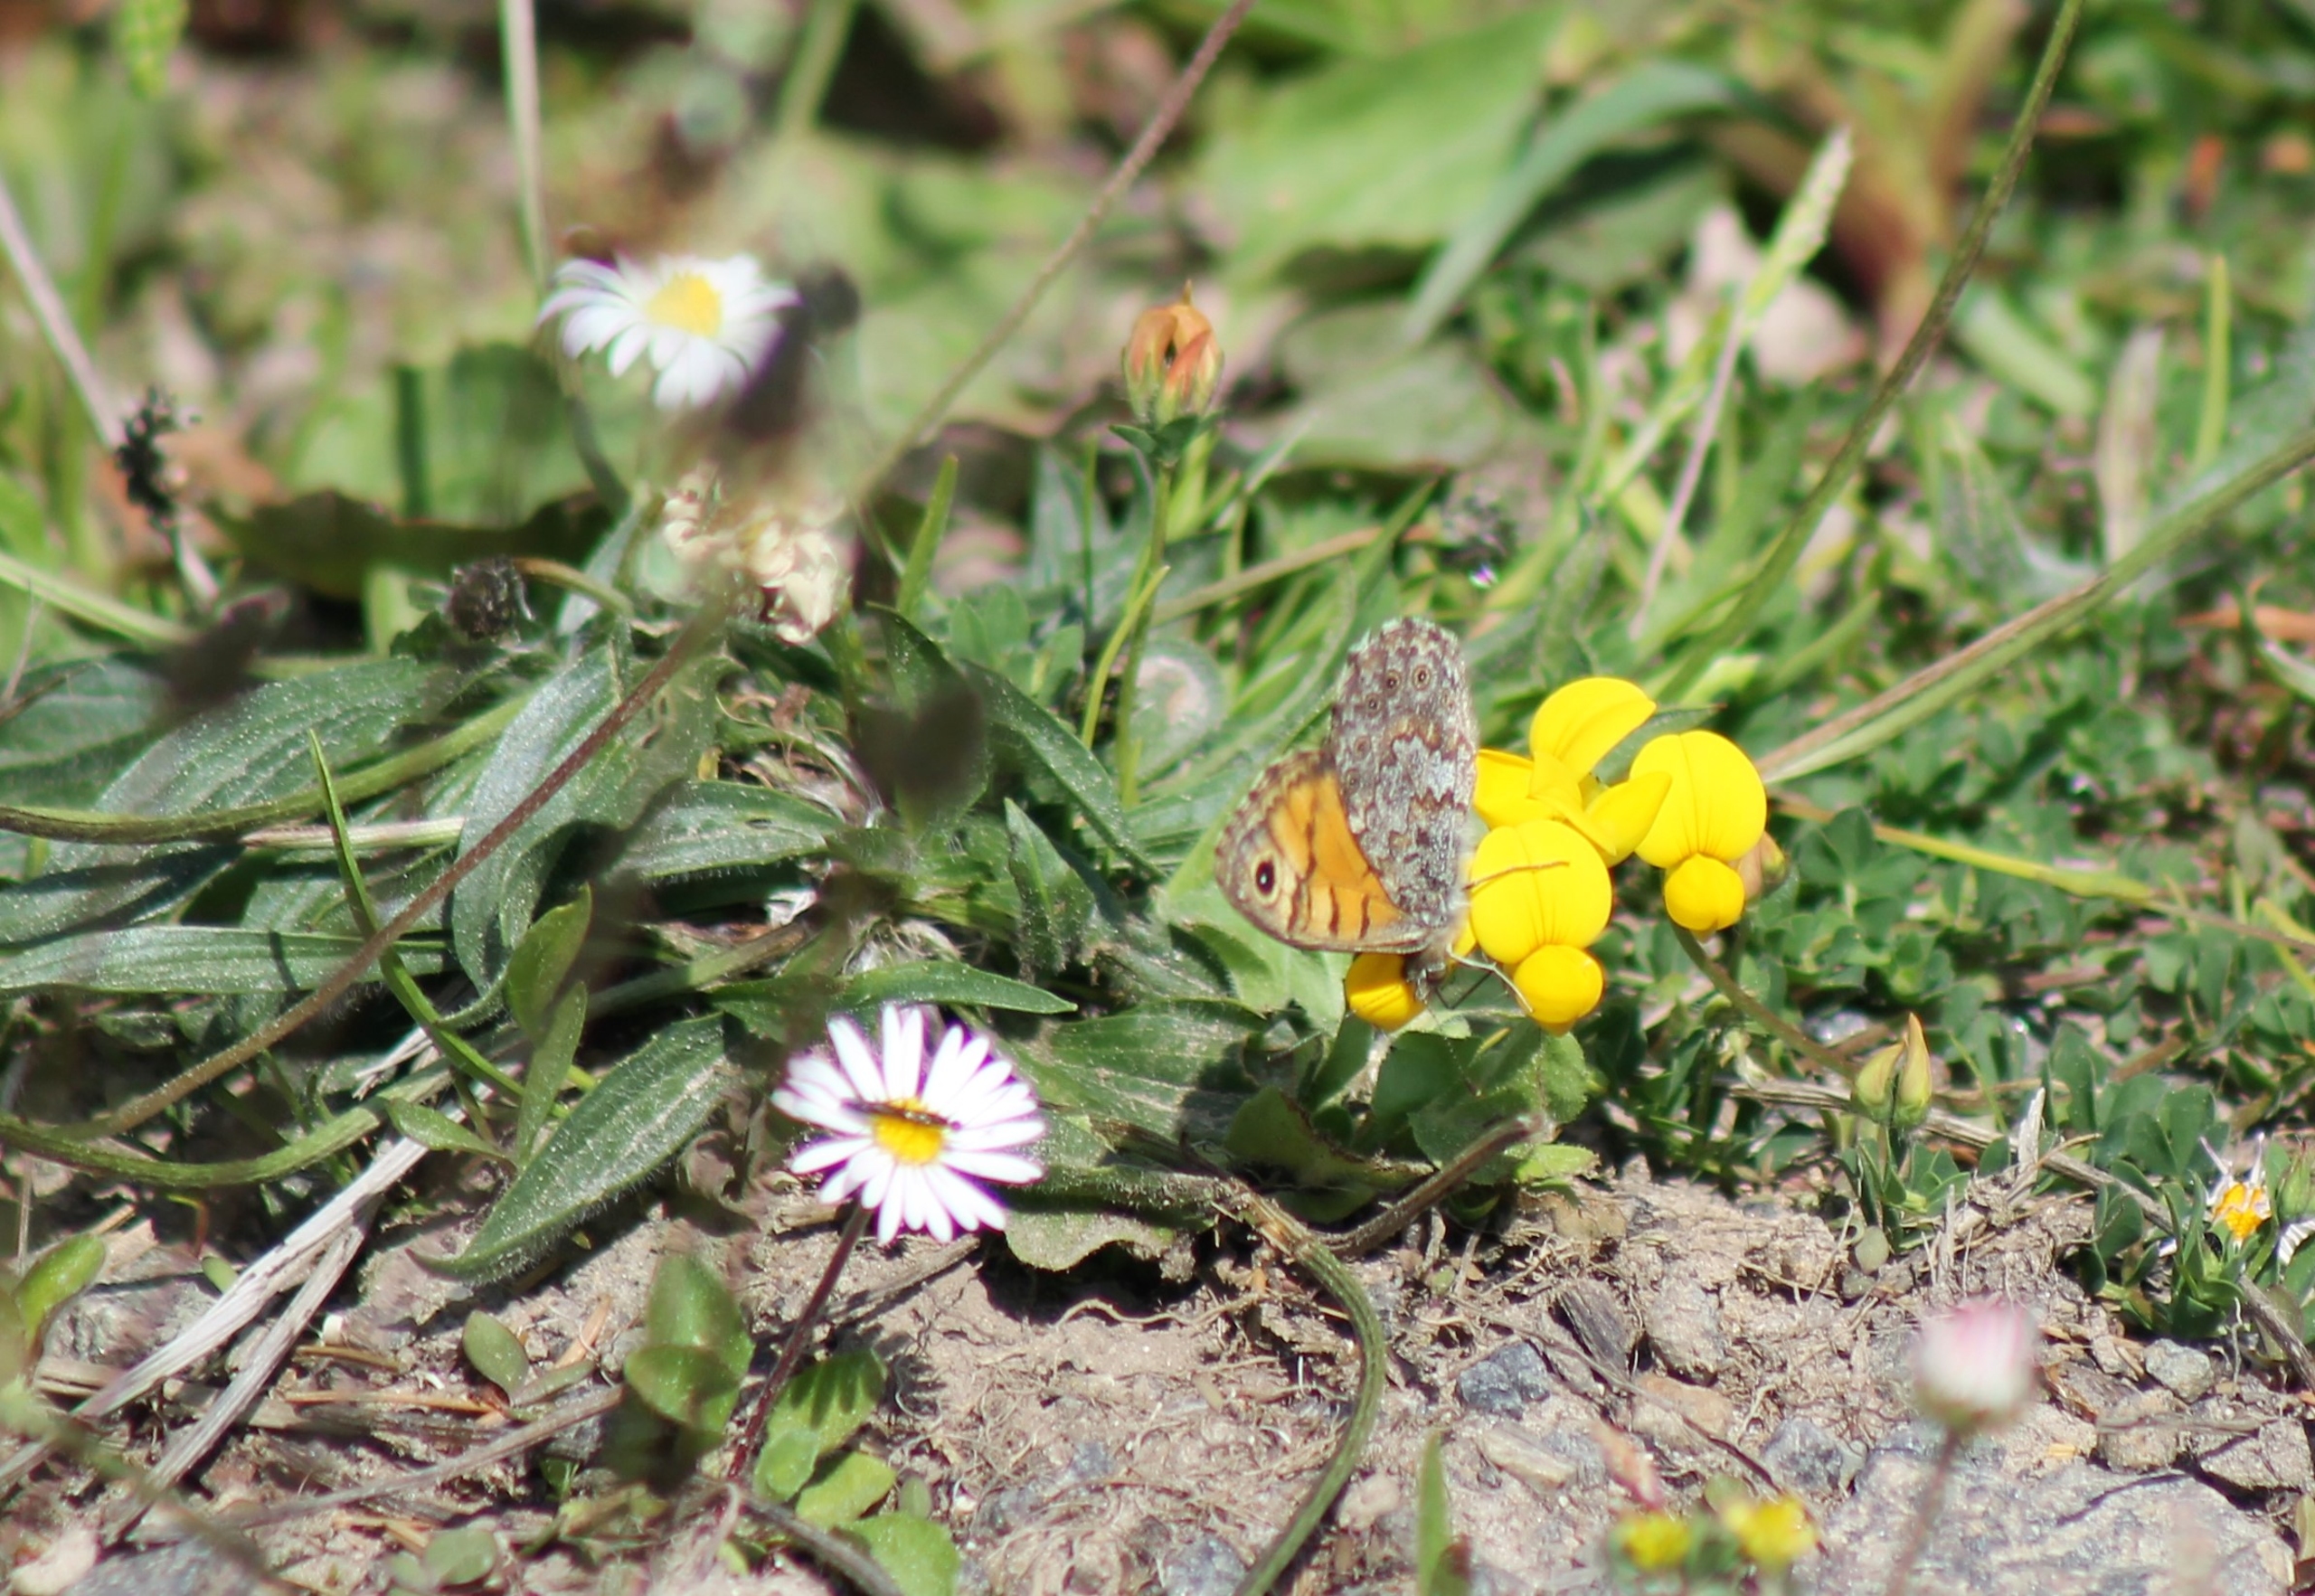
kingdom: Animalia
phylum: Arthropoda
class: Insecta
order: Lepidoptera
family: Nymphalidae
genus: Pararge
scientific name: Pararge Lasiommata megera
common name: Vejrandøje
